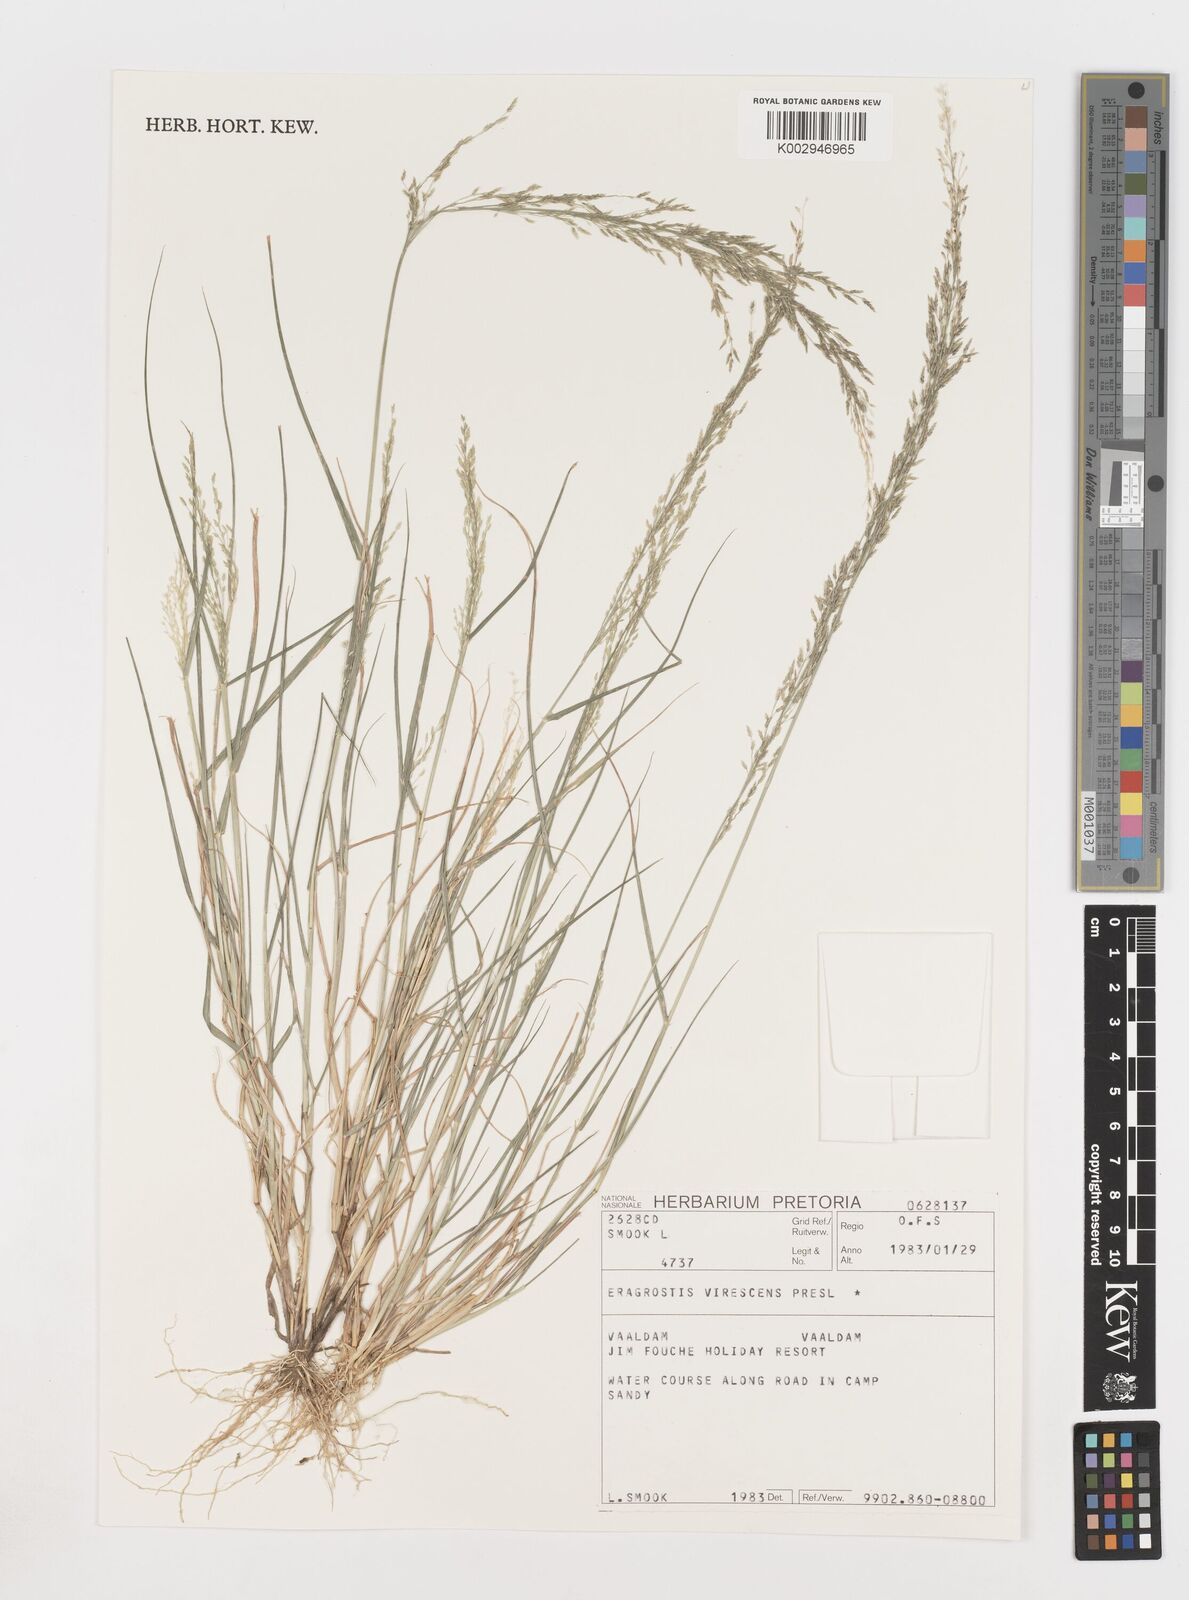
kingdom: Plantae
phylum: Tracheophyta
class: Liliopsida
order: Poales
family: Poaceae
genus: Eragrostis
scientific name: Eragrostis
